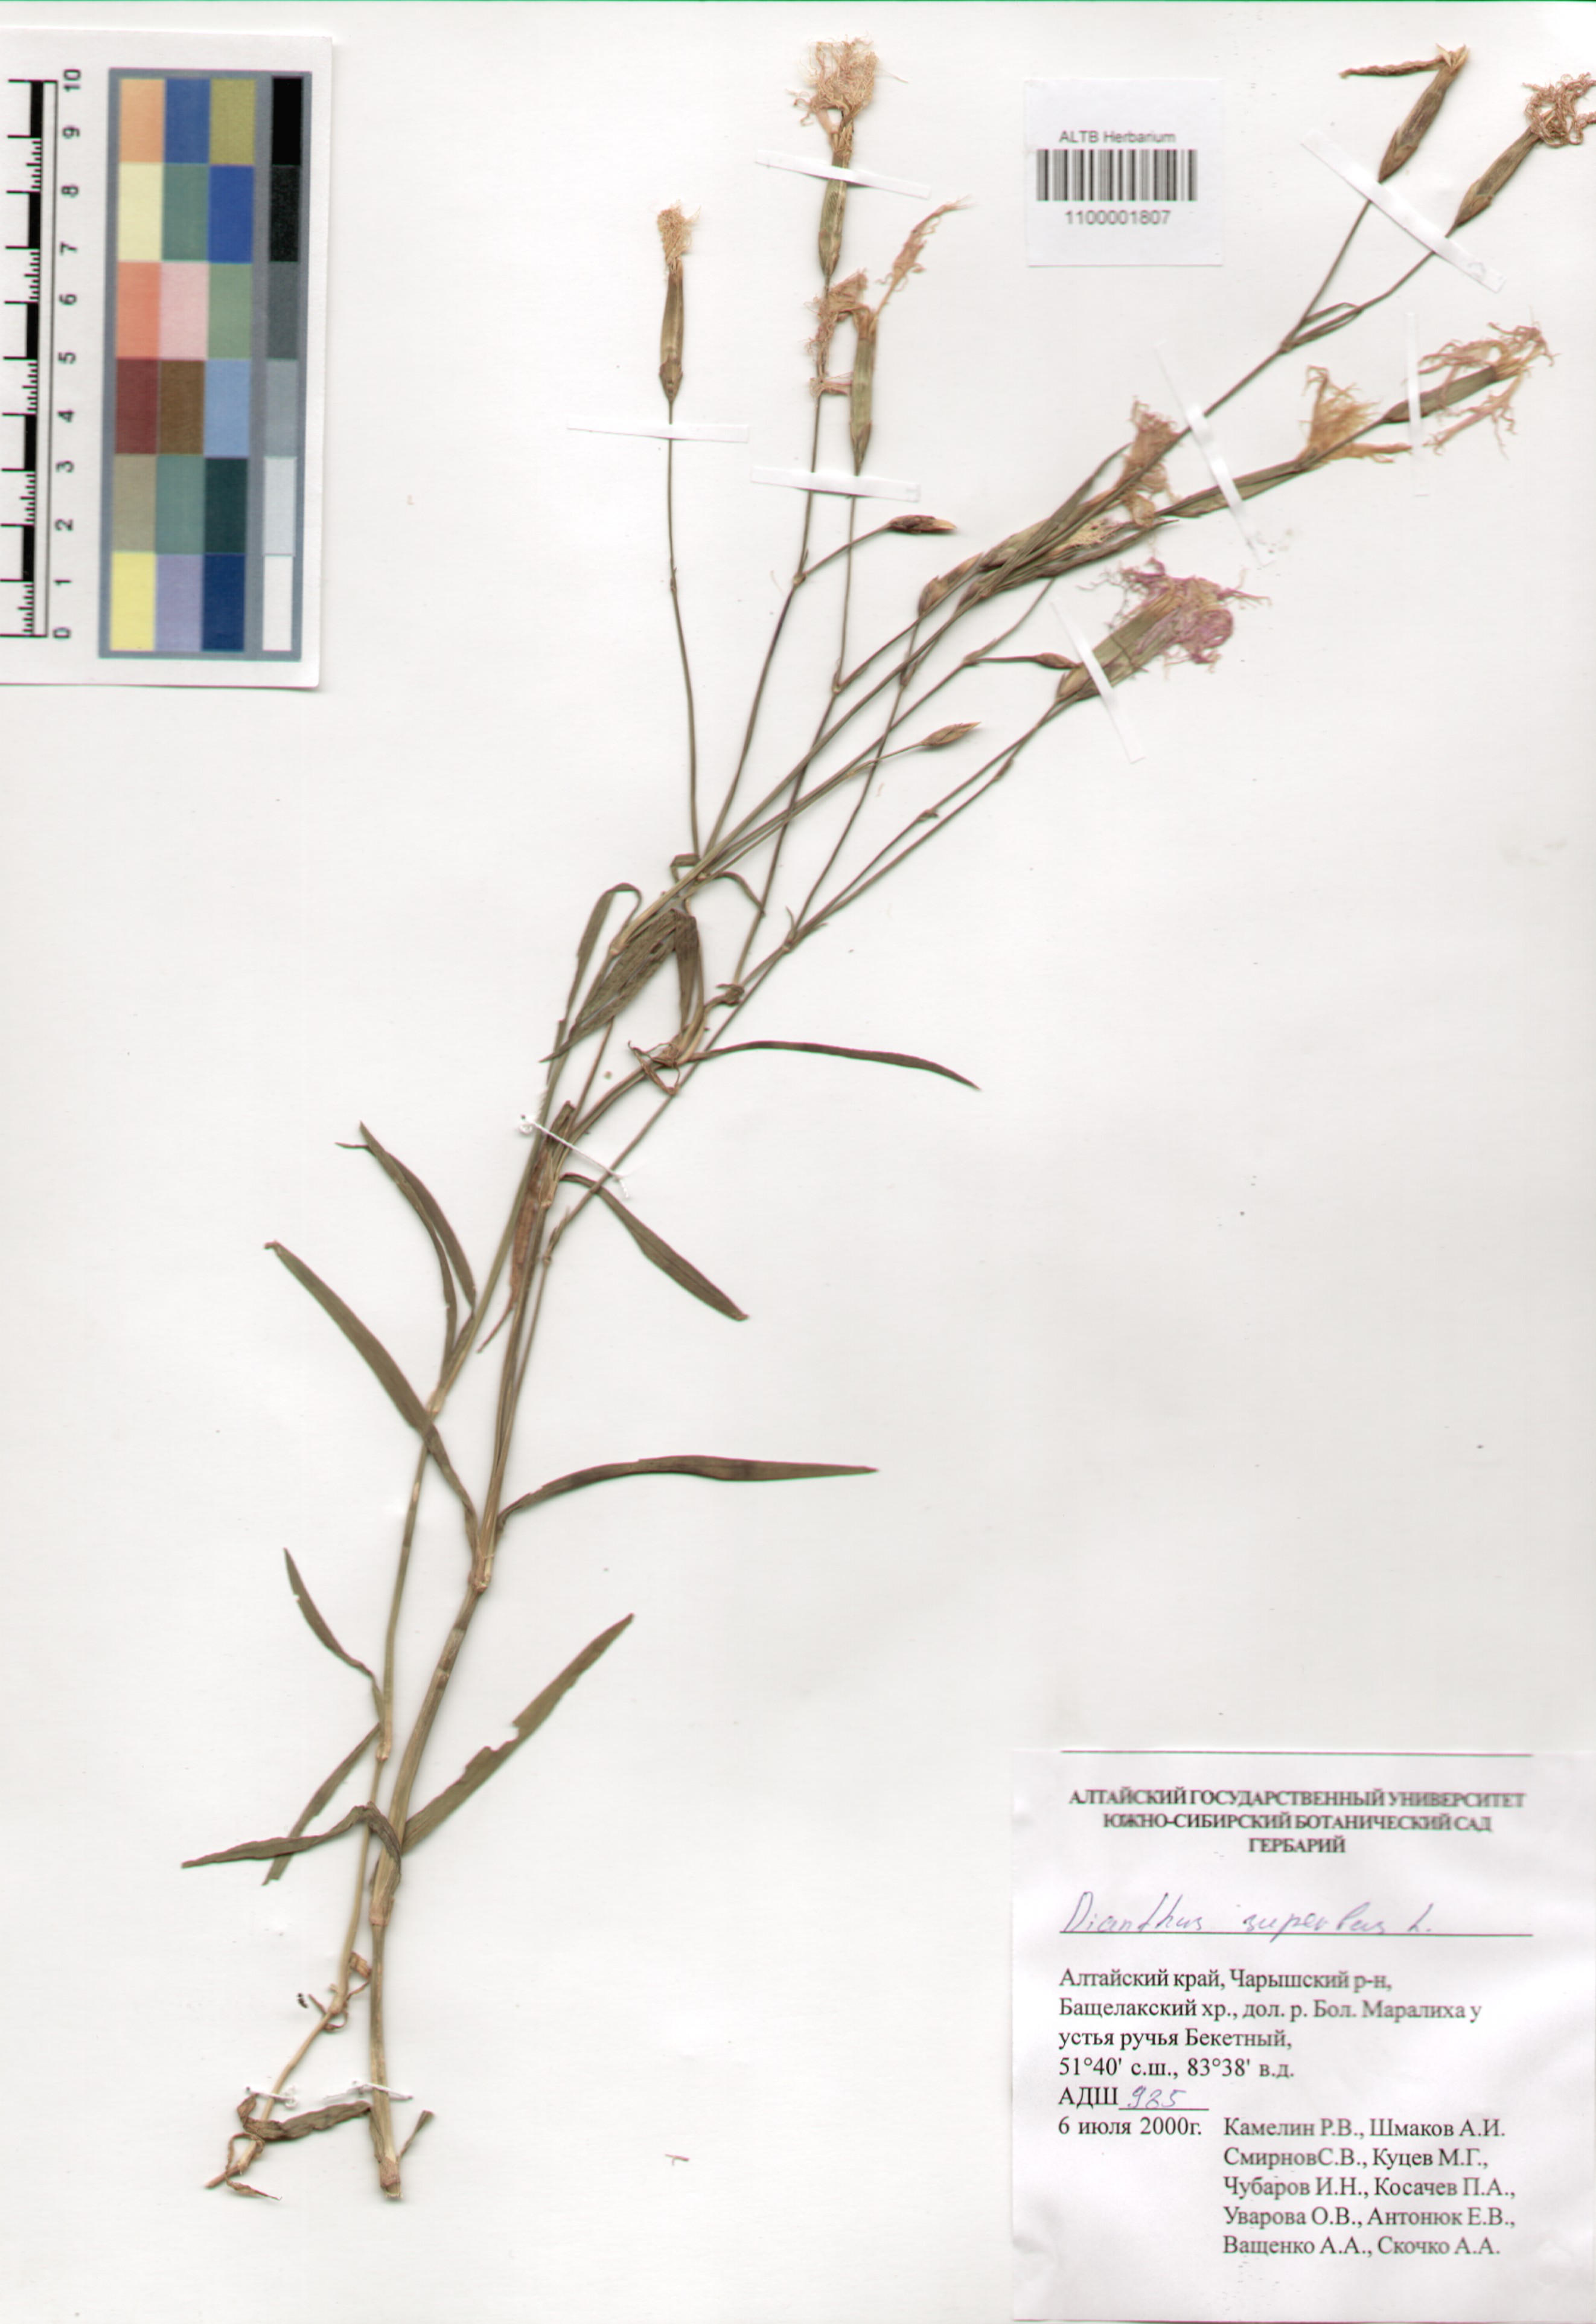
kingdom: Plantae
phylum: Tracheophyta
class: Magnoliopsida
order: Caryophyllales
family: Caryophyllaceae
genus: Dianthus
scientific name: Dianthus superbus
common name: Fringed pink
